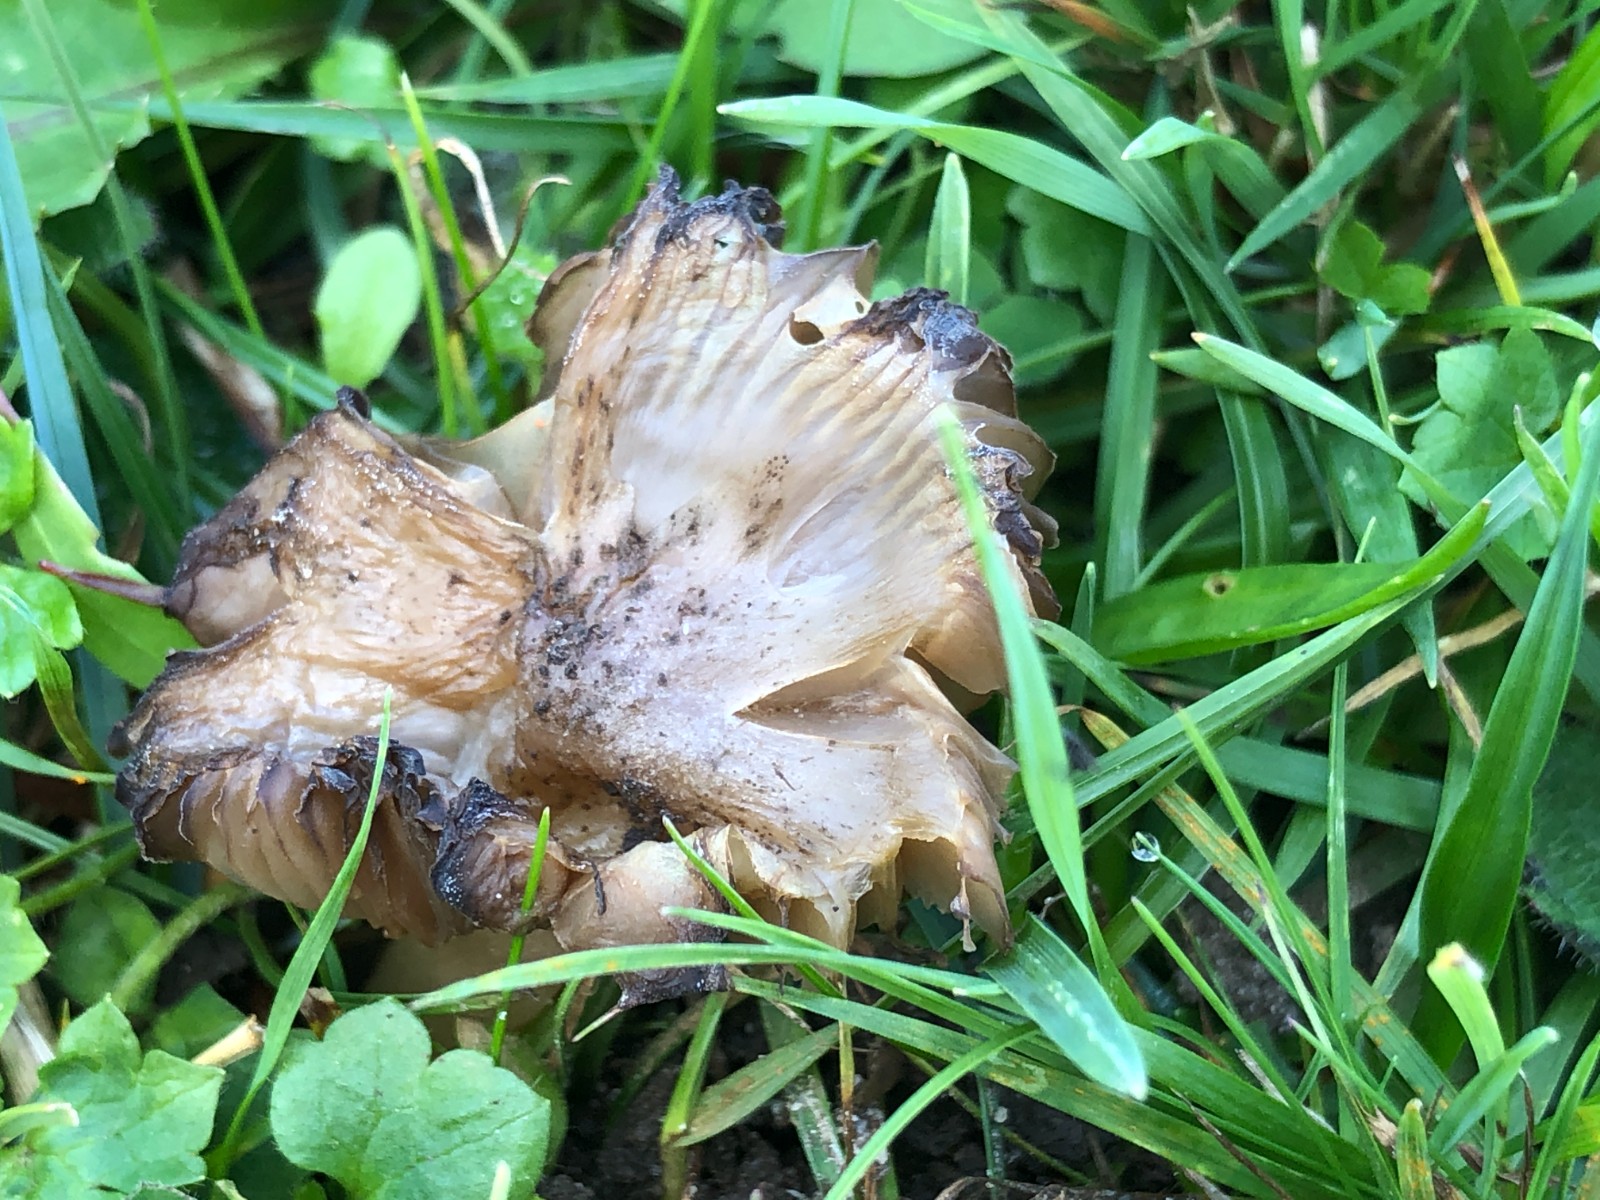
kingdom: Fungi
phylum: Basidiomycota
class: Agaricomycetes
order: Agaricales
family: Hygrophoraceae
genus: Hygrocybe
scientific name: Hygrocybe
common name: vokshat
